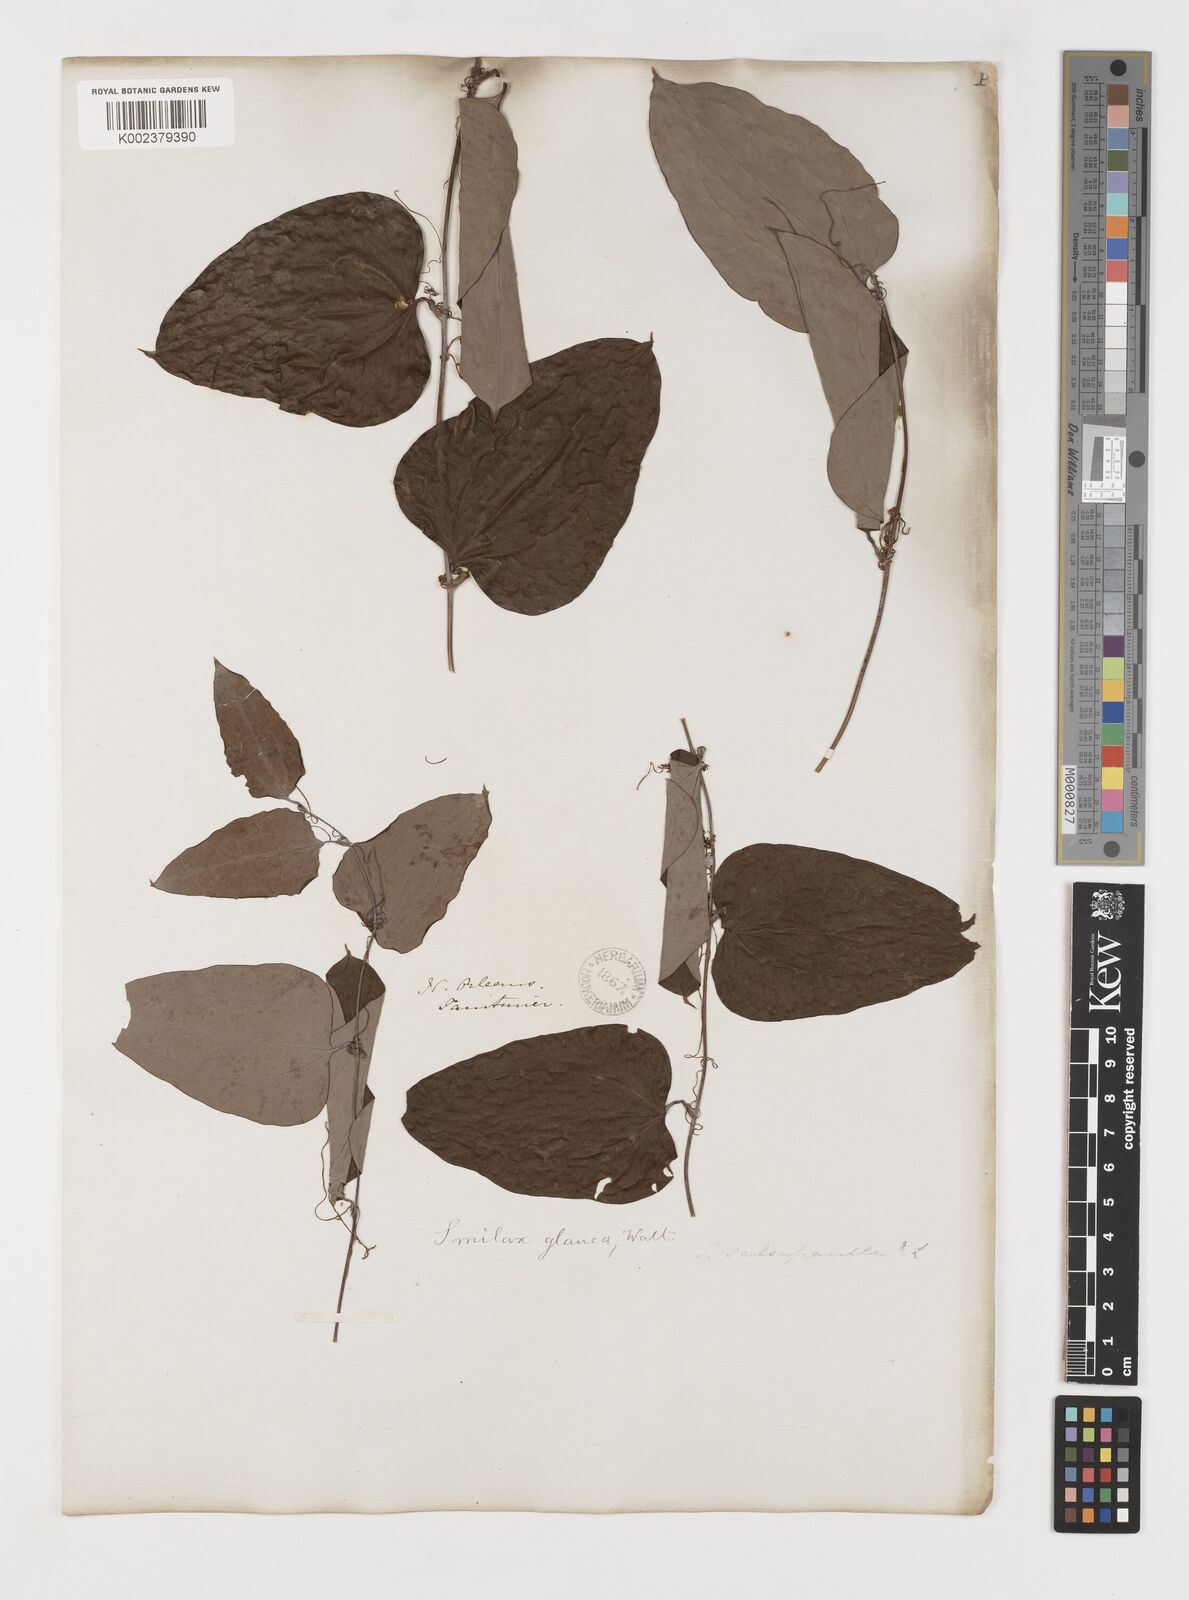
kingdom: Plantae
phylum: Tracheophyta
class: Liliopsida
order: Liliales
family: Smilacaceae
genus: Smilax
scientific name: Smilax glauca
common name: Cat greenbrier
